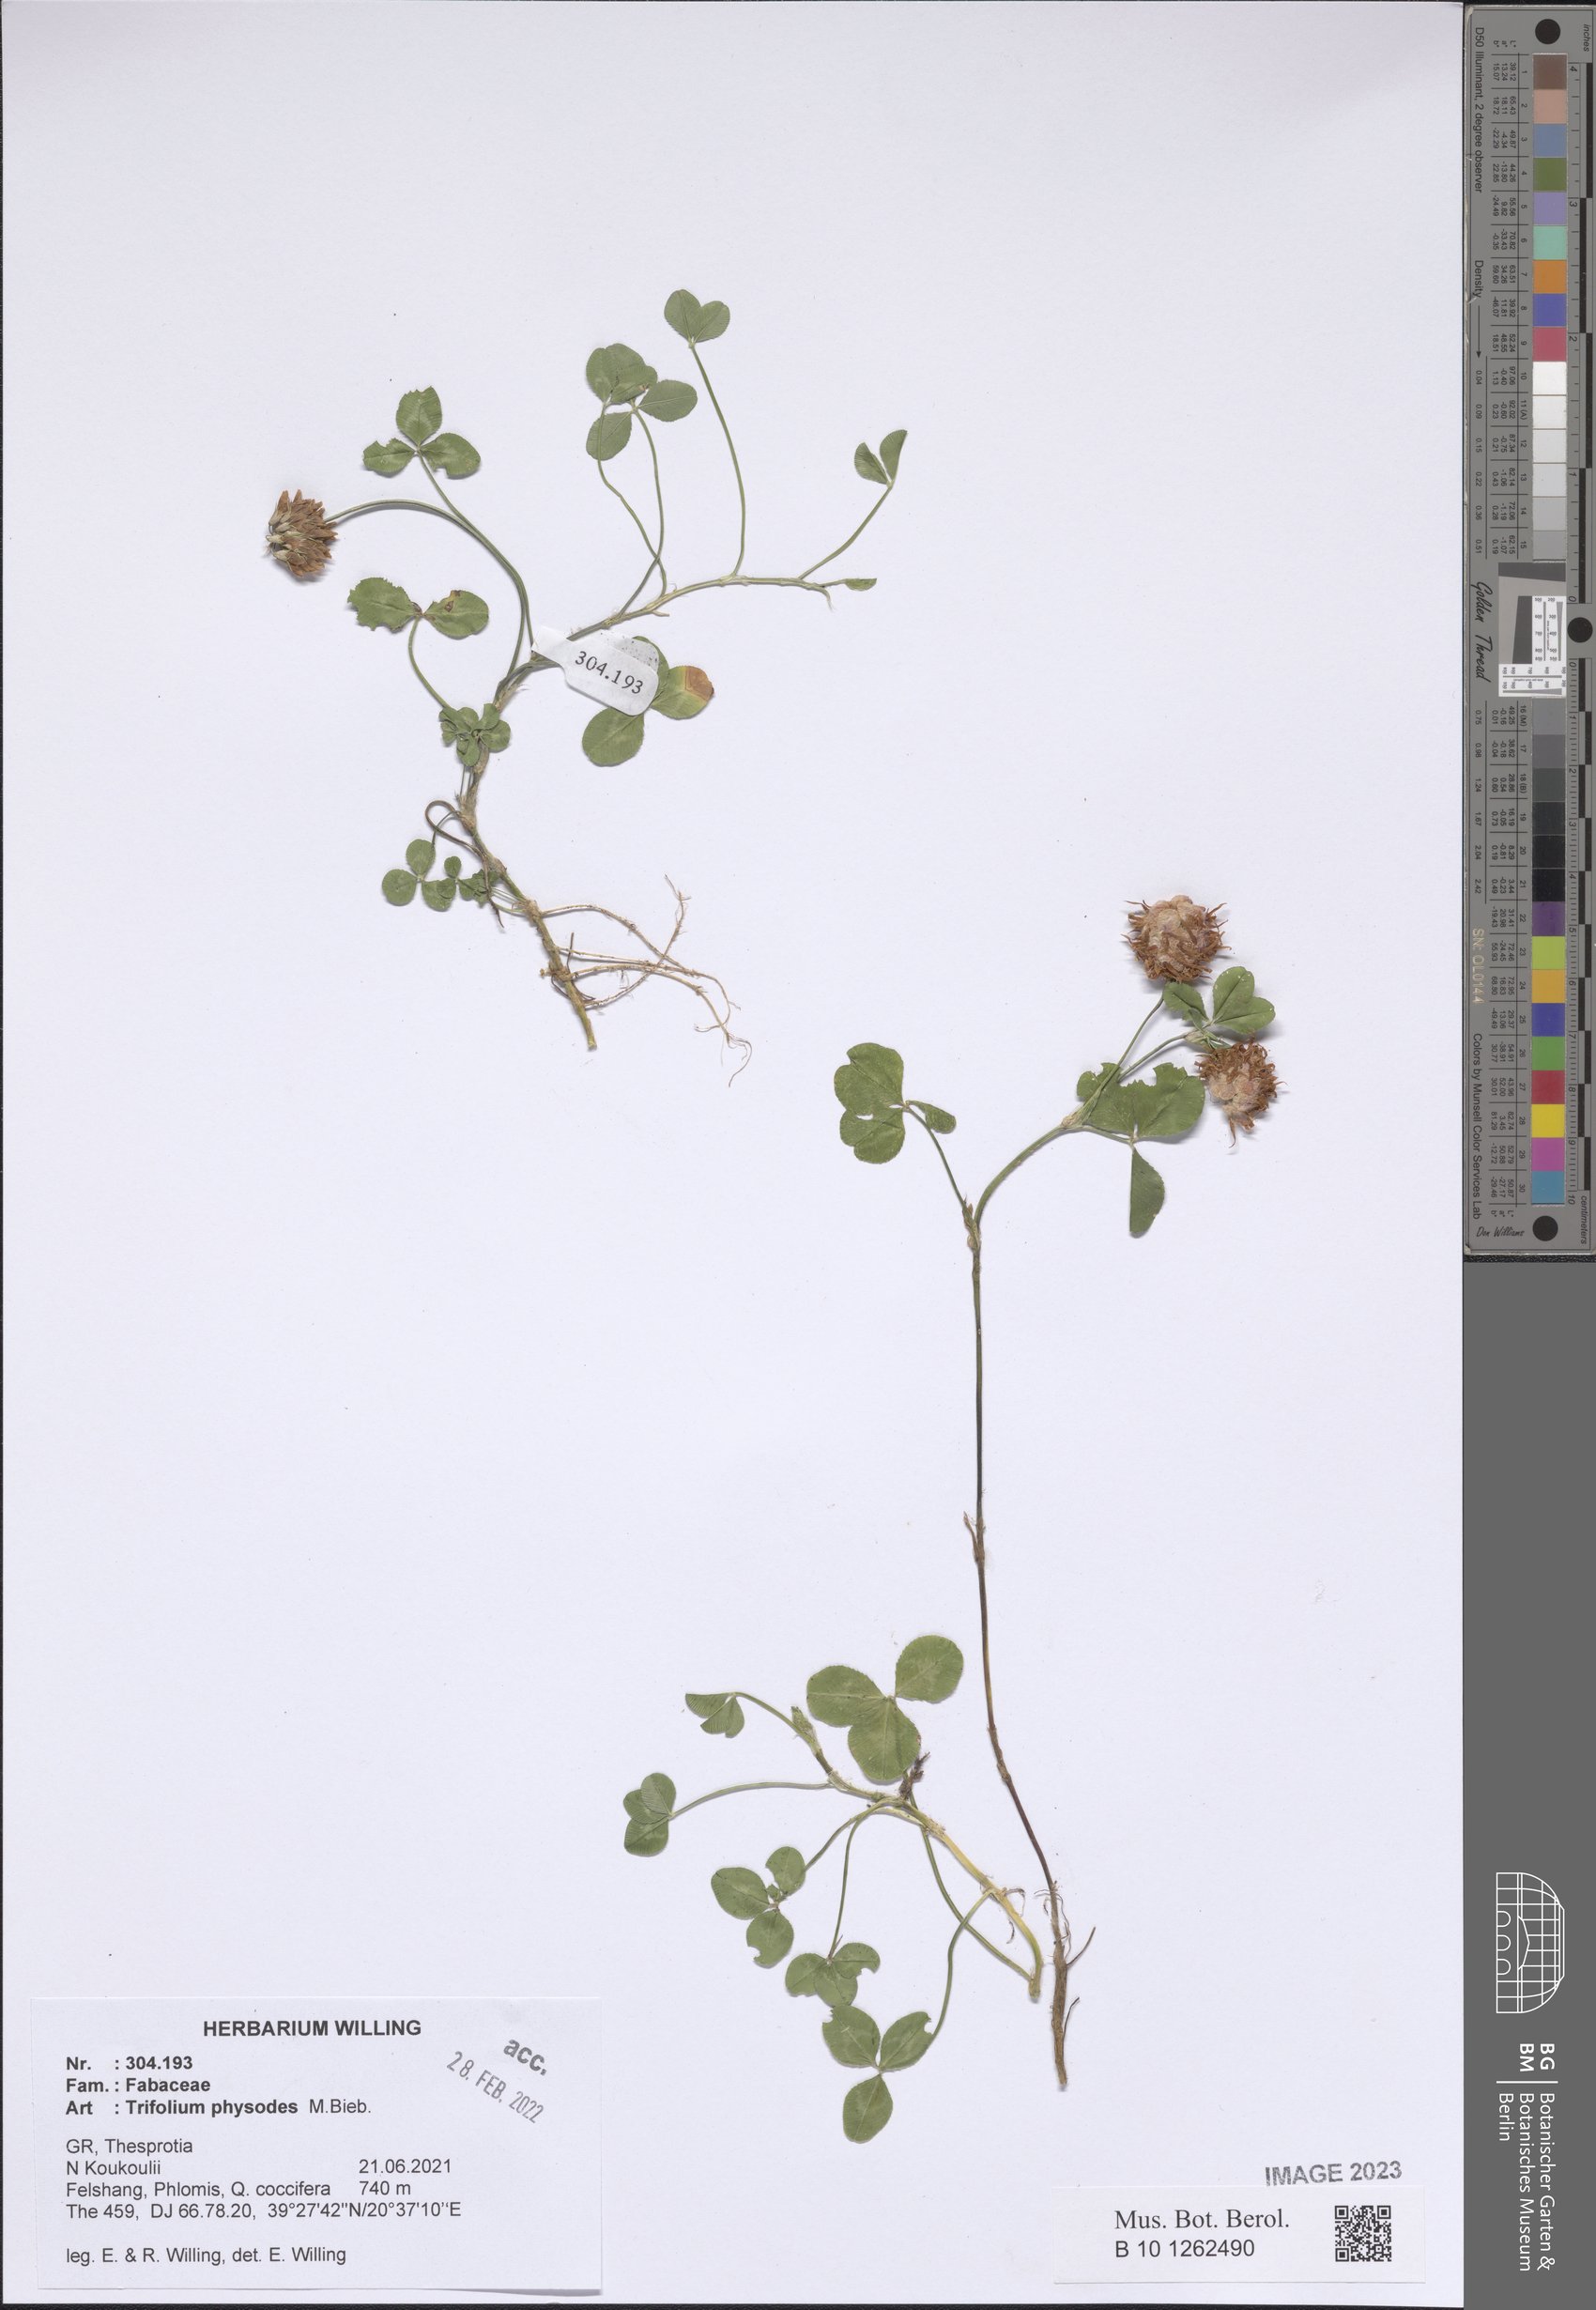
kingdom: Plantae
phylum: Tracheophyta
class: Magnoliopsida
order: Fabales
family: Fabaceae
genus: Trifolium
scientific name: Trifolium physodes
